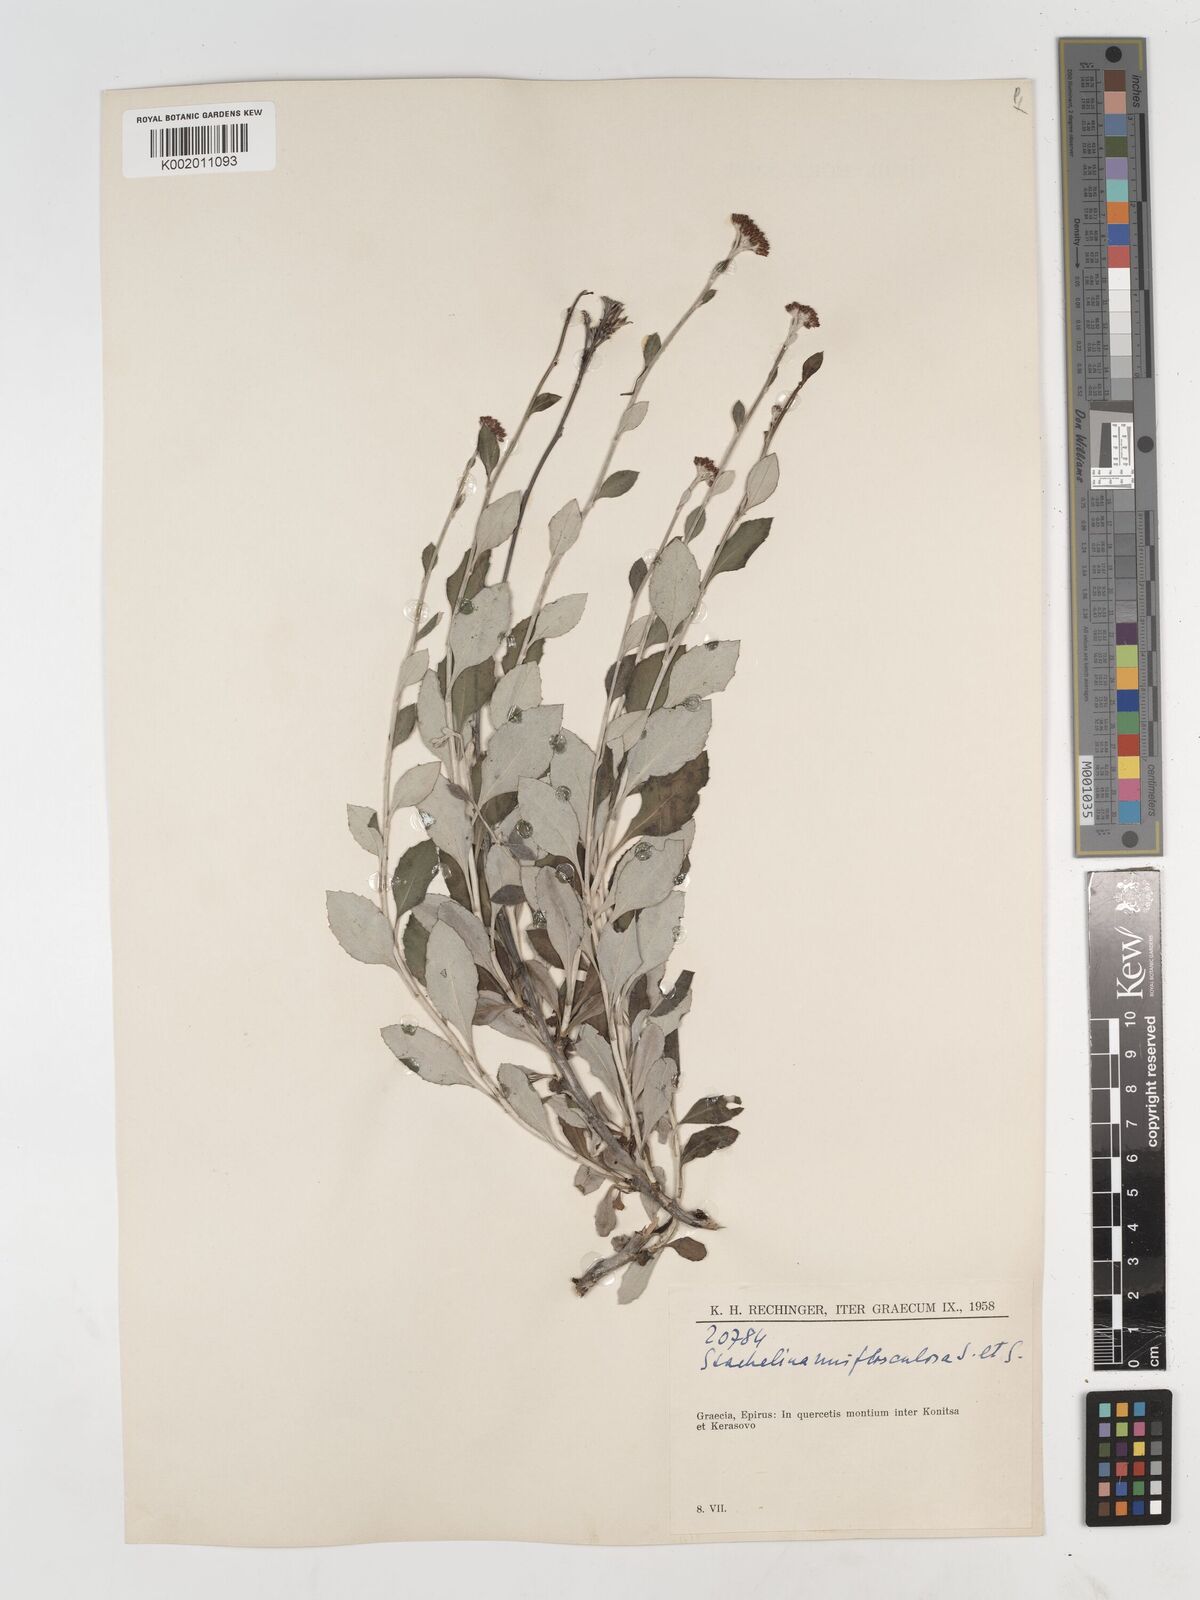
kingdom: Plantae
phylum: Tracheophyta
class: Magnoliopsida
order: Asterales
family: Asteraceae
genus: Staehelina
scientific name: Staehelina uniflosculosa
